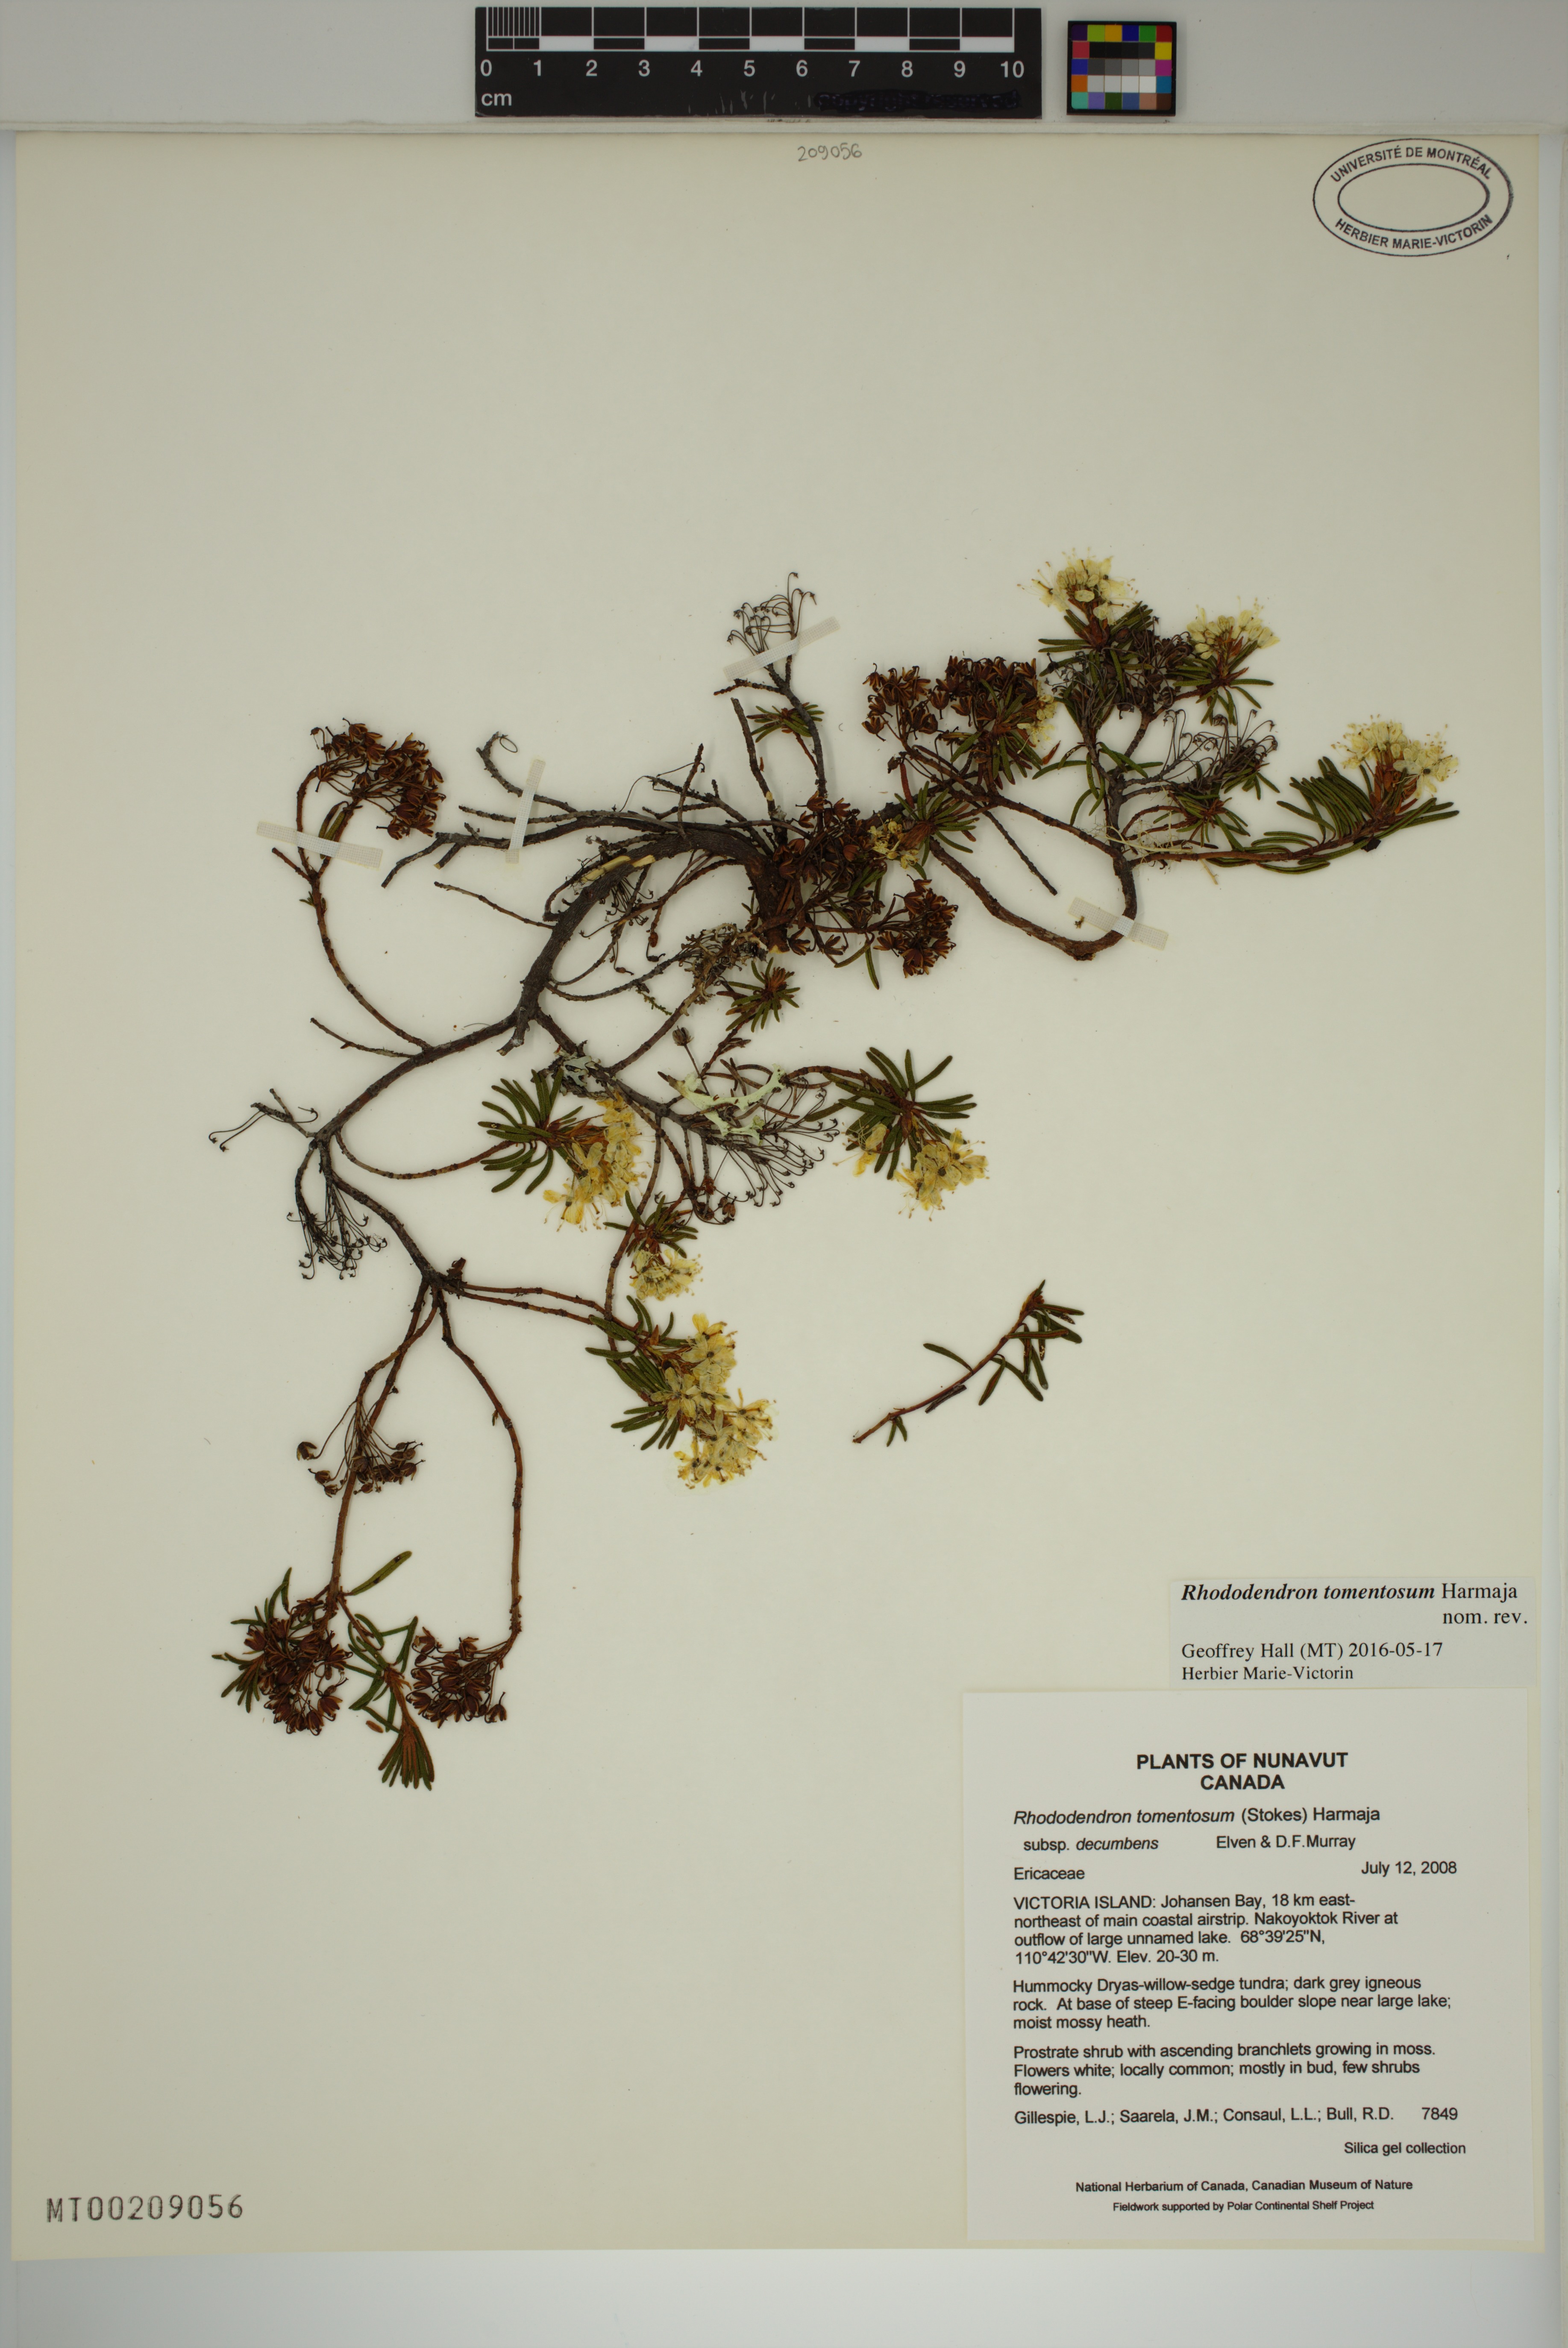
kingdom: Plantae
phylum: Tracheophyta
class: Magnoliopsida
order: Ericales
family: Ericaceae
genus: Rhododendron
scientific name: Rhododendron tomentosum
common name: Marsh labrador tea
